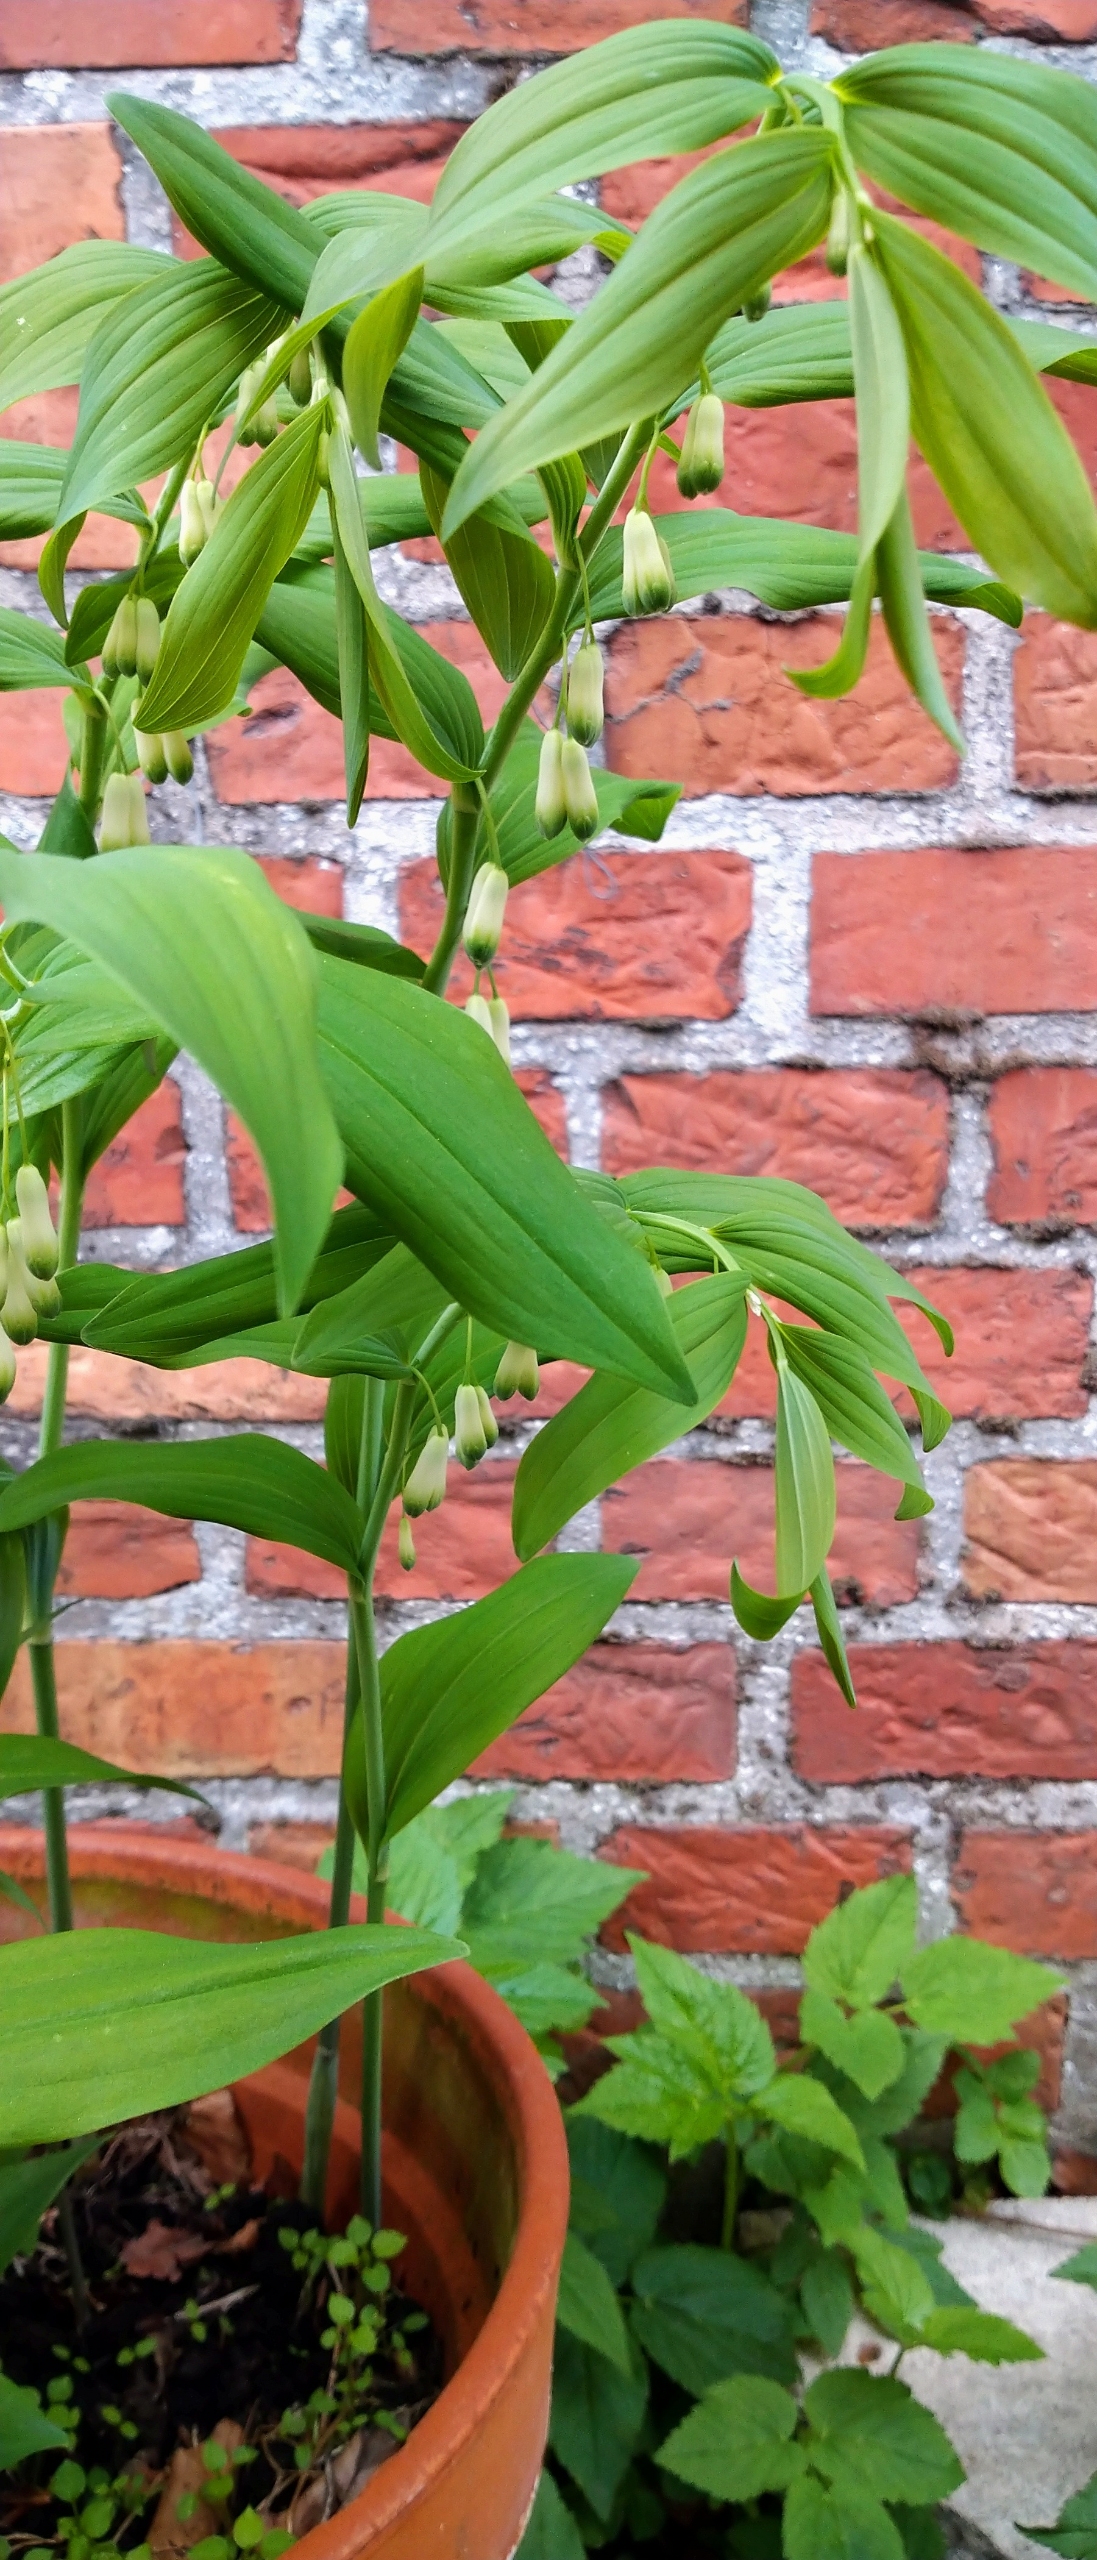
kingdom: Plantae
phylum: Tracheophyta
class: Liliopsida
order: Asparagales
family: Asparagaceae
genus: Polygonatum
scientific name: Polygonatum
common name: Hybrid-konval
